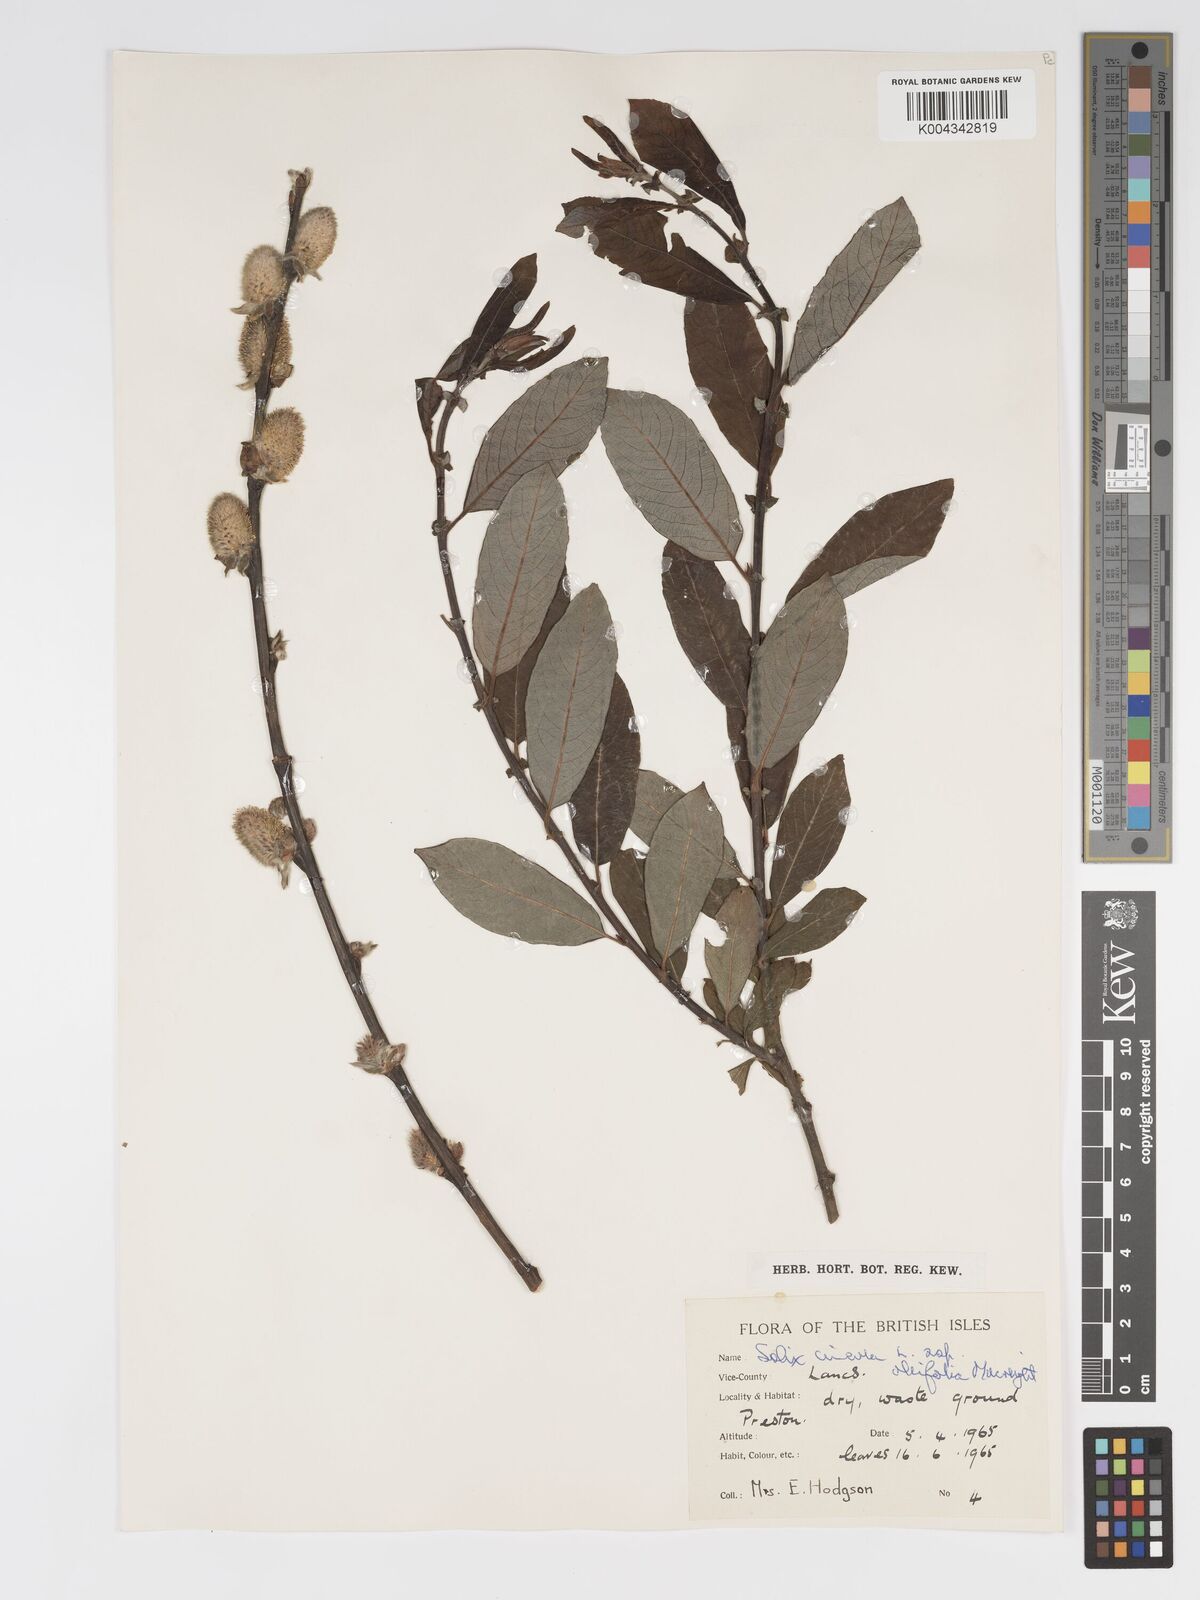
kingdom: Plantae
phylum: Tracheophyta
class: Magnoliopsida
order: Malpighiales
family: Salicaceae
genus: Salix
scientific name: Salix atrocinerea
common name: Rusty willow
